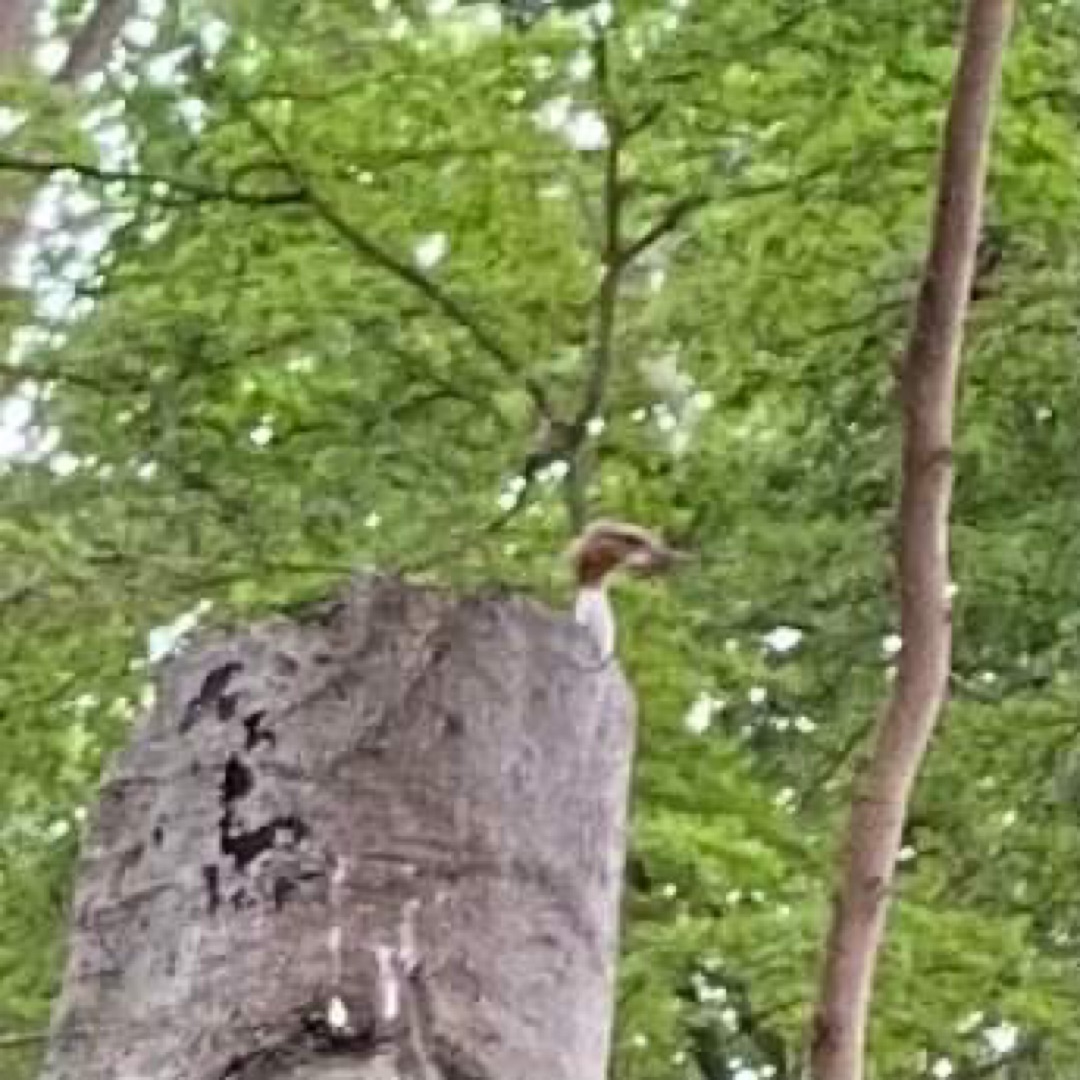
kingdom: Animalia
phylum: Chordata
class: Aves
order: Anseriformes
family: Anatidae
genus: Mergus
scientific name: Mergus merganser
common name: Stor skallesluger
